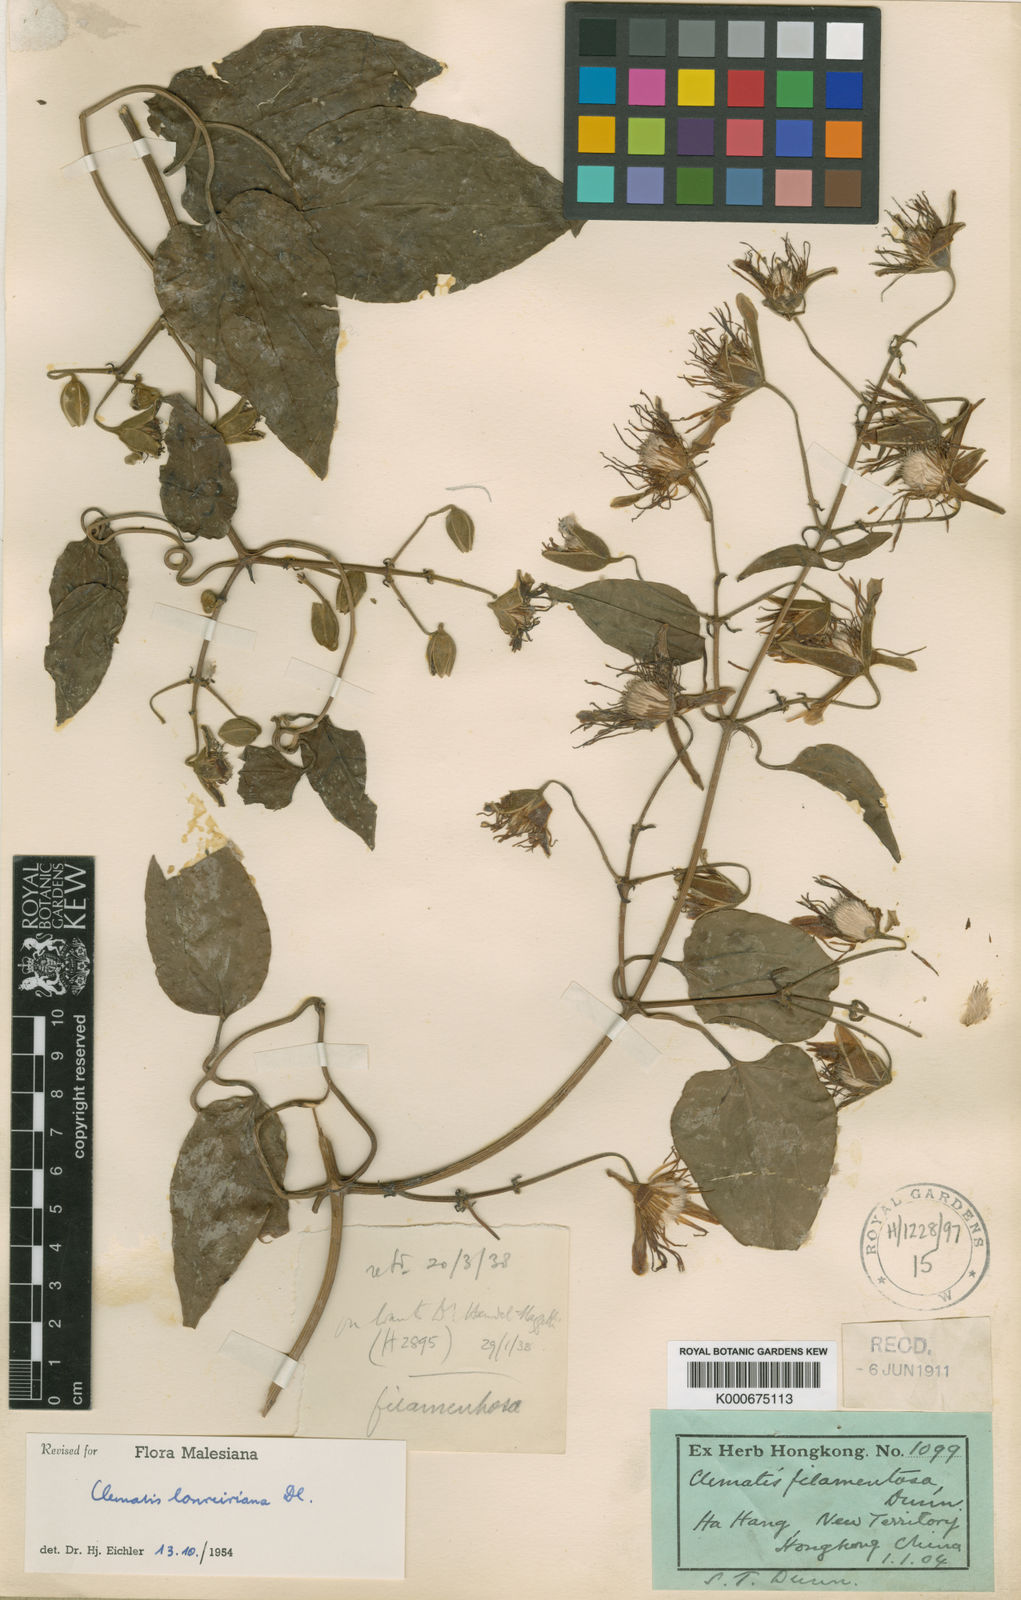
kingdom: Plantae
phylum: Tracheophyta
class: Magnoliopsida
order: Ranunculales
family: Ranunculaceae
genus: Clematis
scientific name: Clematis loureiroana
